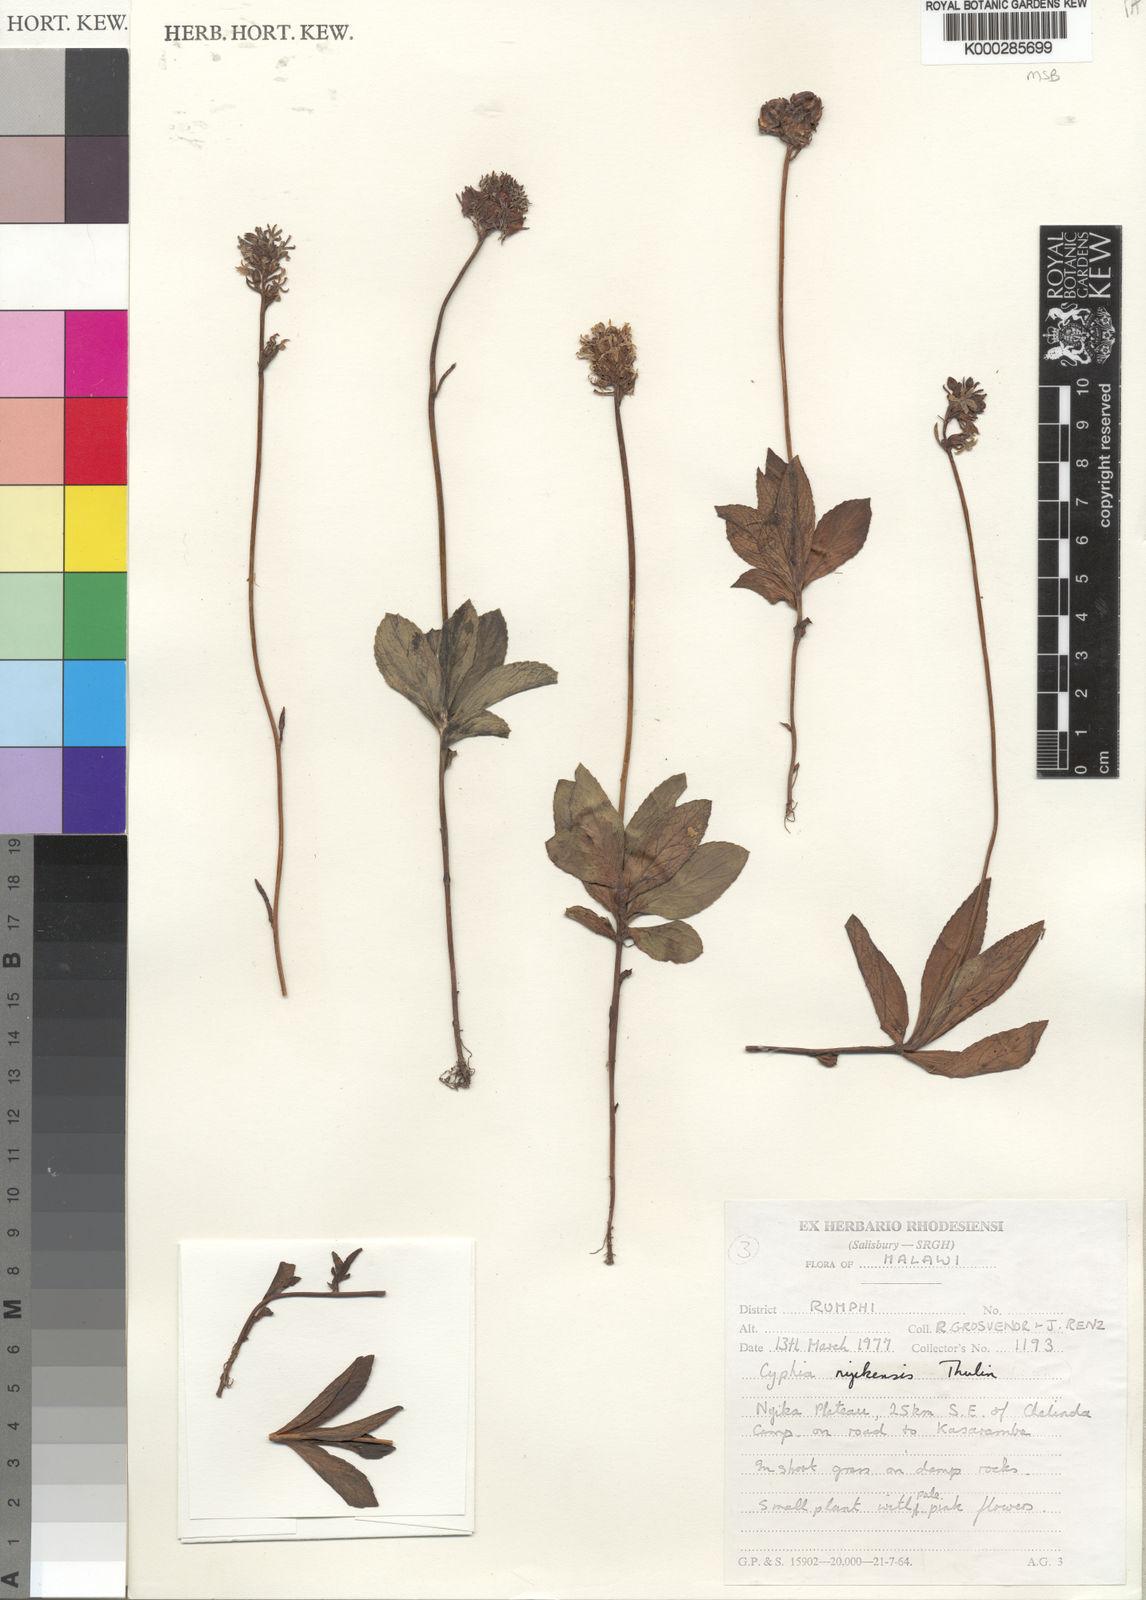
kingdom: Plantae
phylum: Tracheophyta
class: Magnoliopsida
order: Asterales
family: Campanulaceae
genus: Cyphia
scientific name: Cyphia nyikensis
